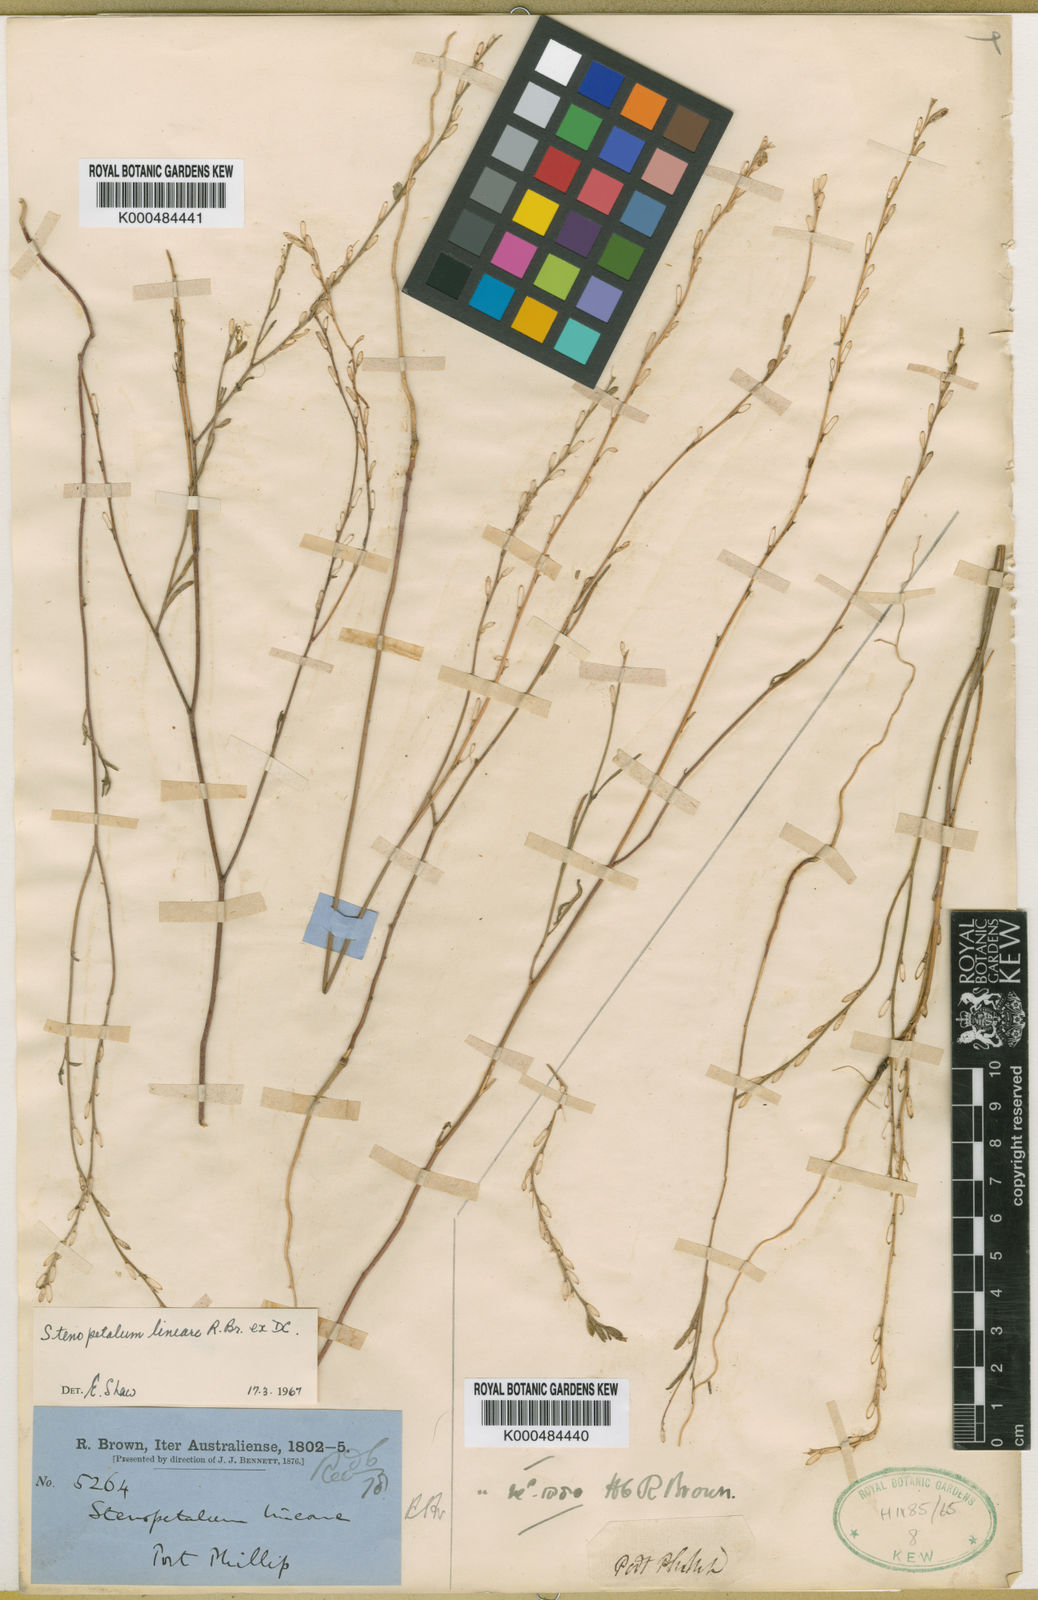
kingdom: Plantae
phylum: Tracheophyta
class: Magnoliopsida
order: Brassicales
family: Brassicaceae
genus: Stenopetalum
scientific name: Stenopetalum lineare
